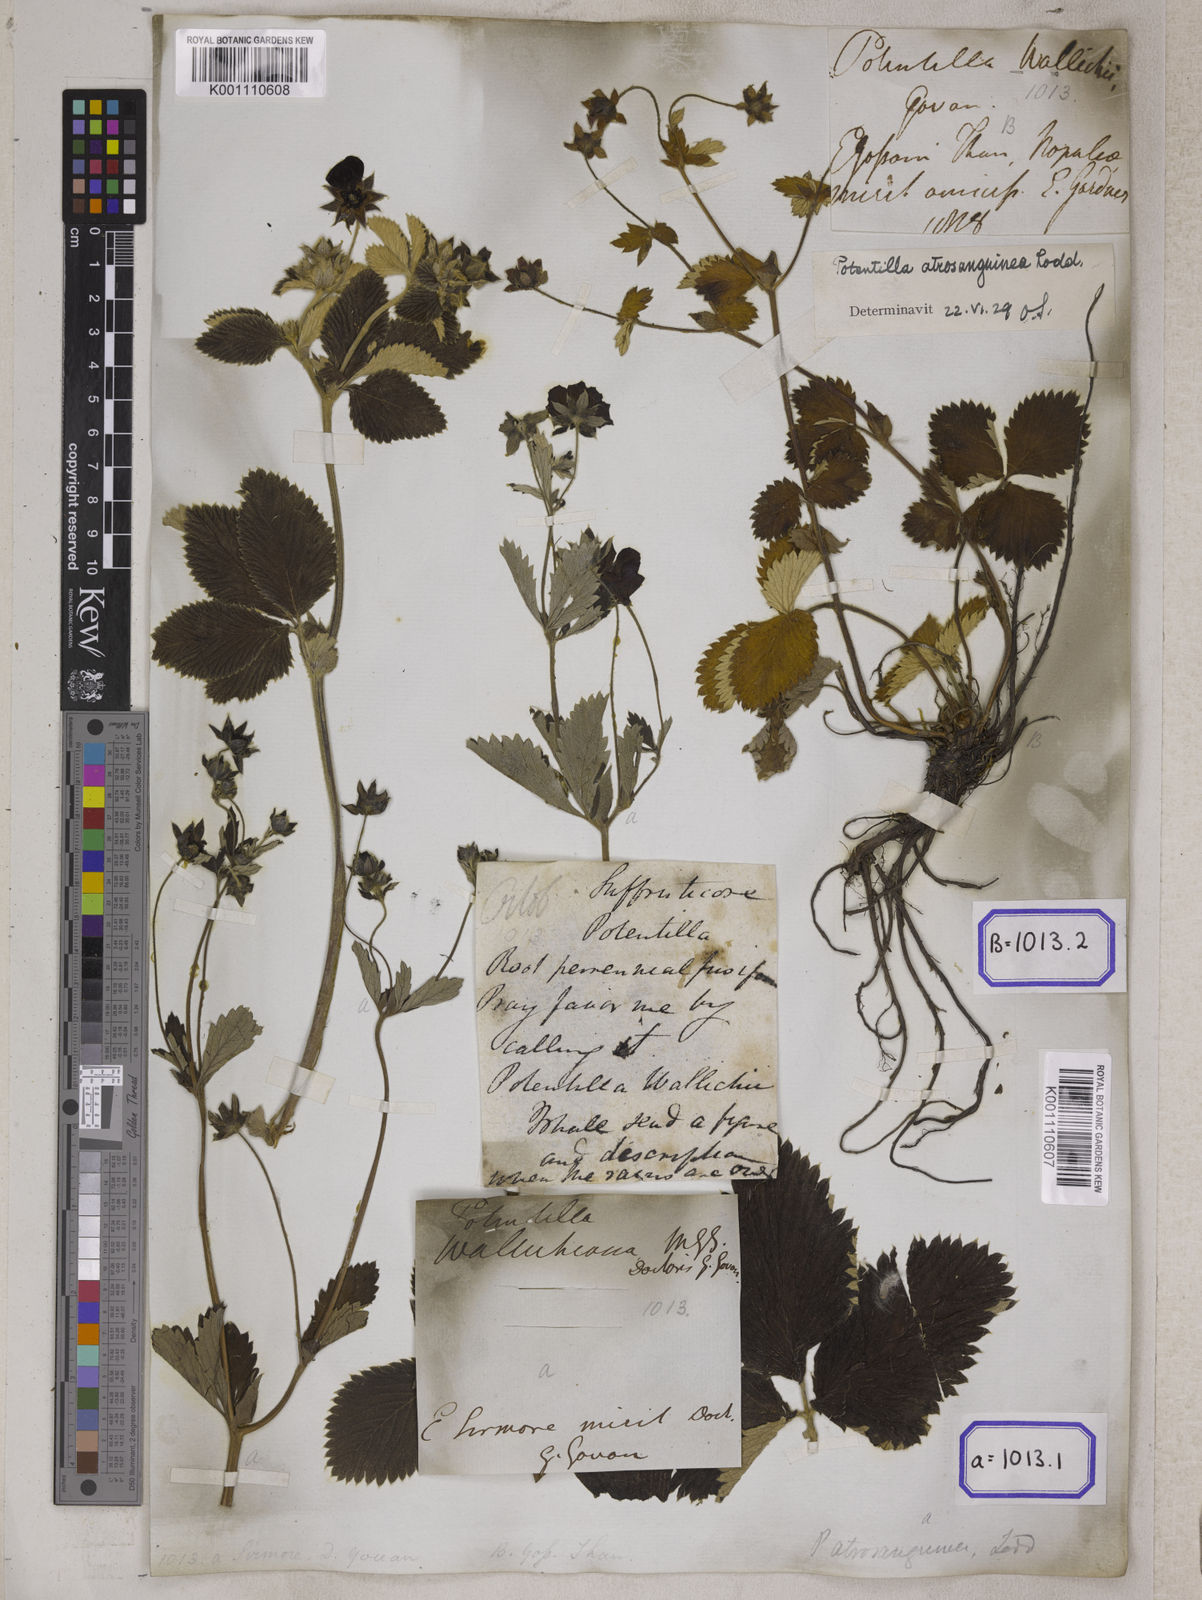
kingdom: Plantae
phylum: Tracheophyta
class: Magnoliopsida
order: Rosales
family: Rosaceae
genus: Potentilla
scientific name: Potentilla
